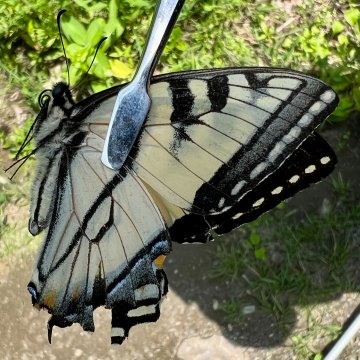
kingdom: Animalia
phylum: Arthropoda
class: Insecta
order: Lepidoptera
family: Papilionidae
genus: Pterourus
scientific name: Pterourus canadensis
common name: Canadian Tiger Swallowtail
